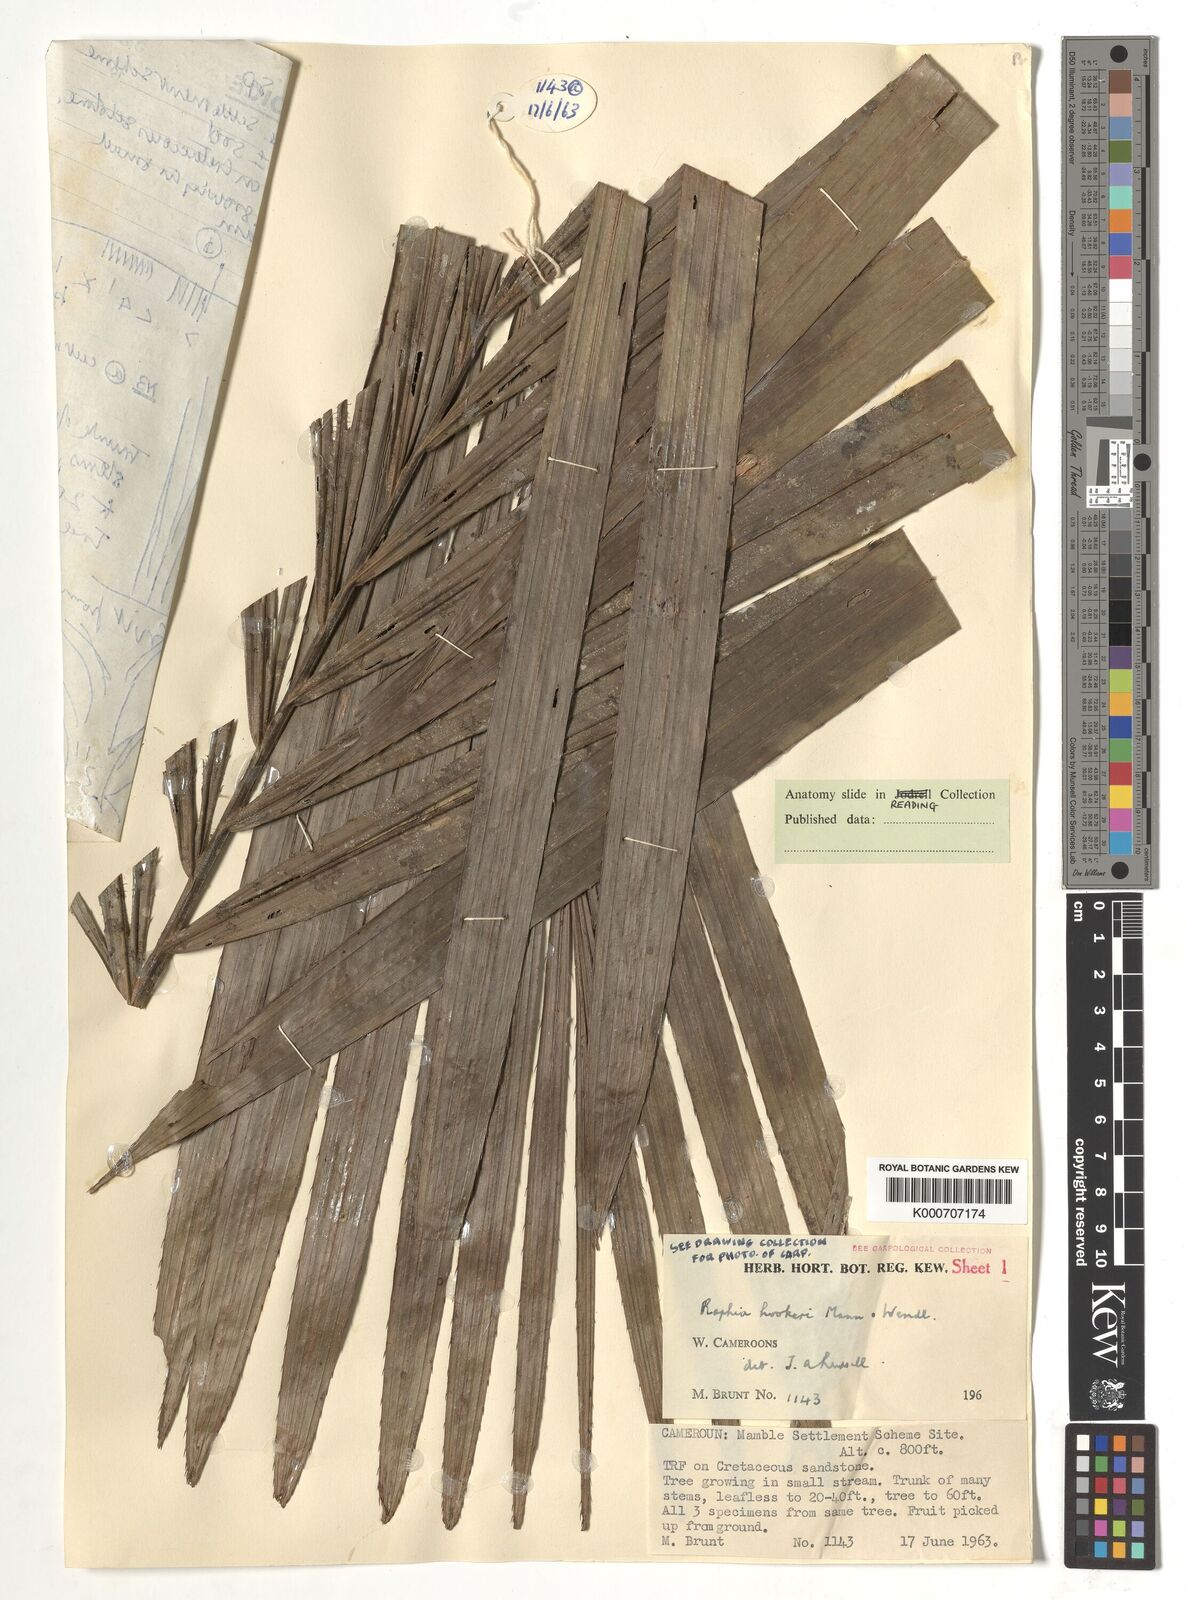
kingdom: Plantae
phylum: Tracheophyta
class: Liliopsida
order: Arecales
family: Arecaceae
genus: Raphia
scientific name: Raphia hookeri
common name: Wine palm
